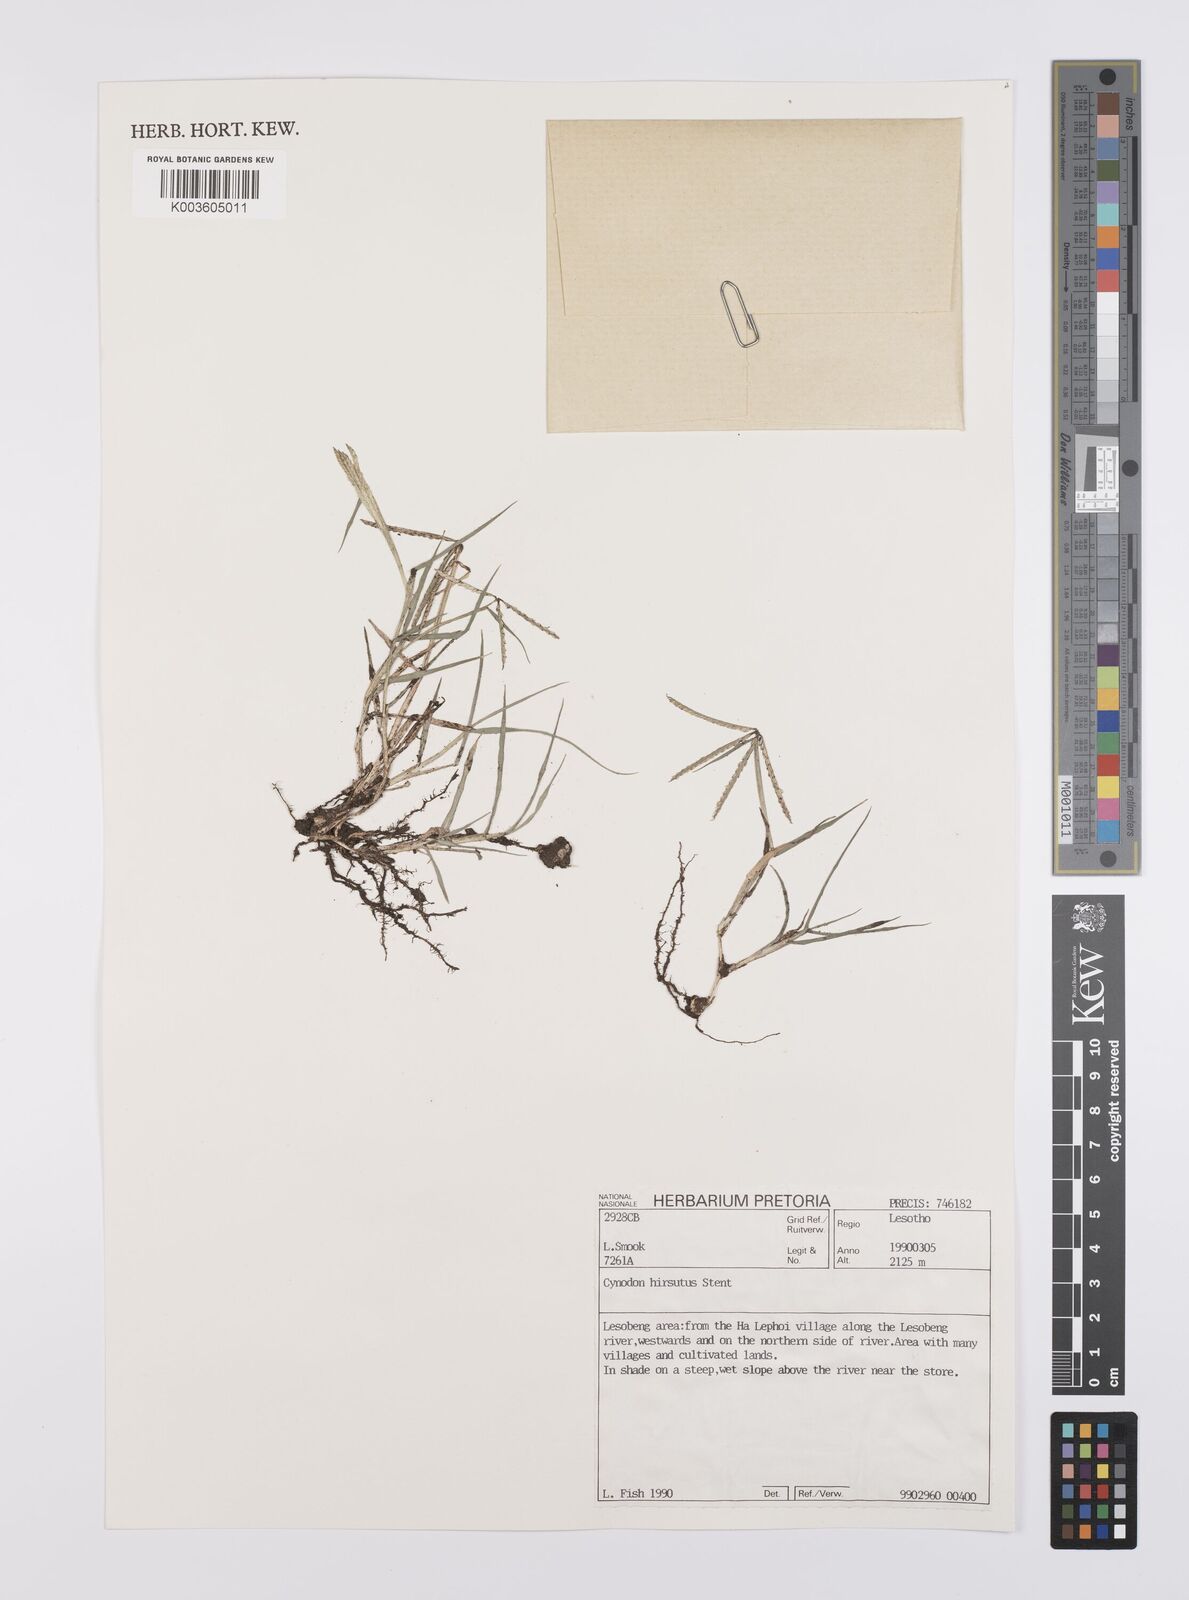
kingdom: Plantae
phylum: Tracheophyta
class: Liliopsida
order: Poales
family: Poaceae
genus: Cynodon
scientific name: Cynodon incompletus
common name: African bermuda-grass
